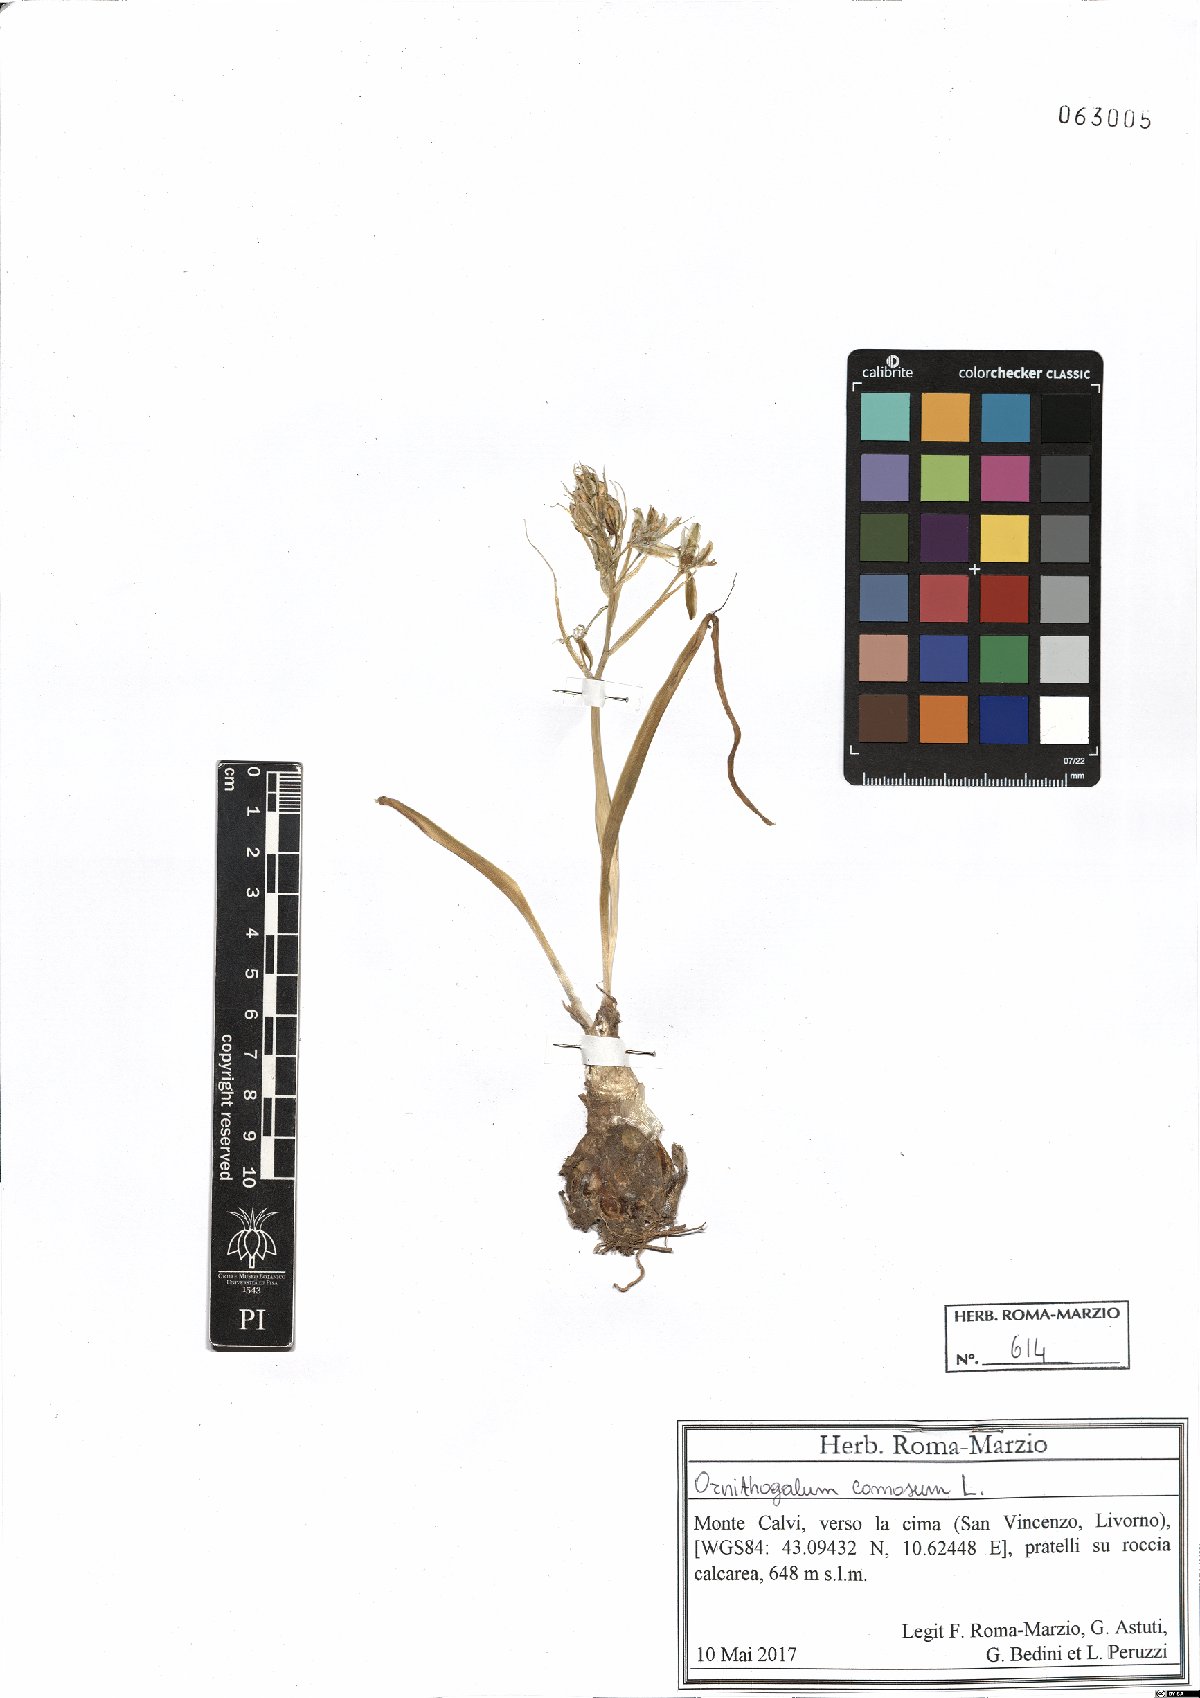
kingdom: Plantae
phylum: Tracheophyta
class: Liliopsida
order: Asparagales
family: Asparagaceae
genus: Ornithogalum
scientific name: Ornithogalum comosum
